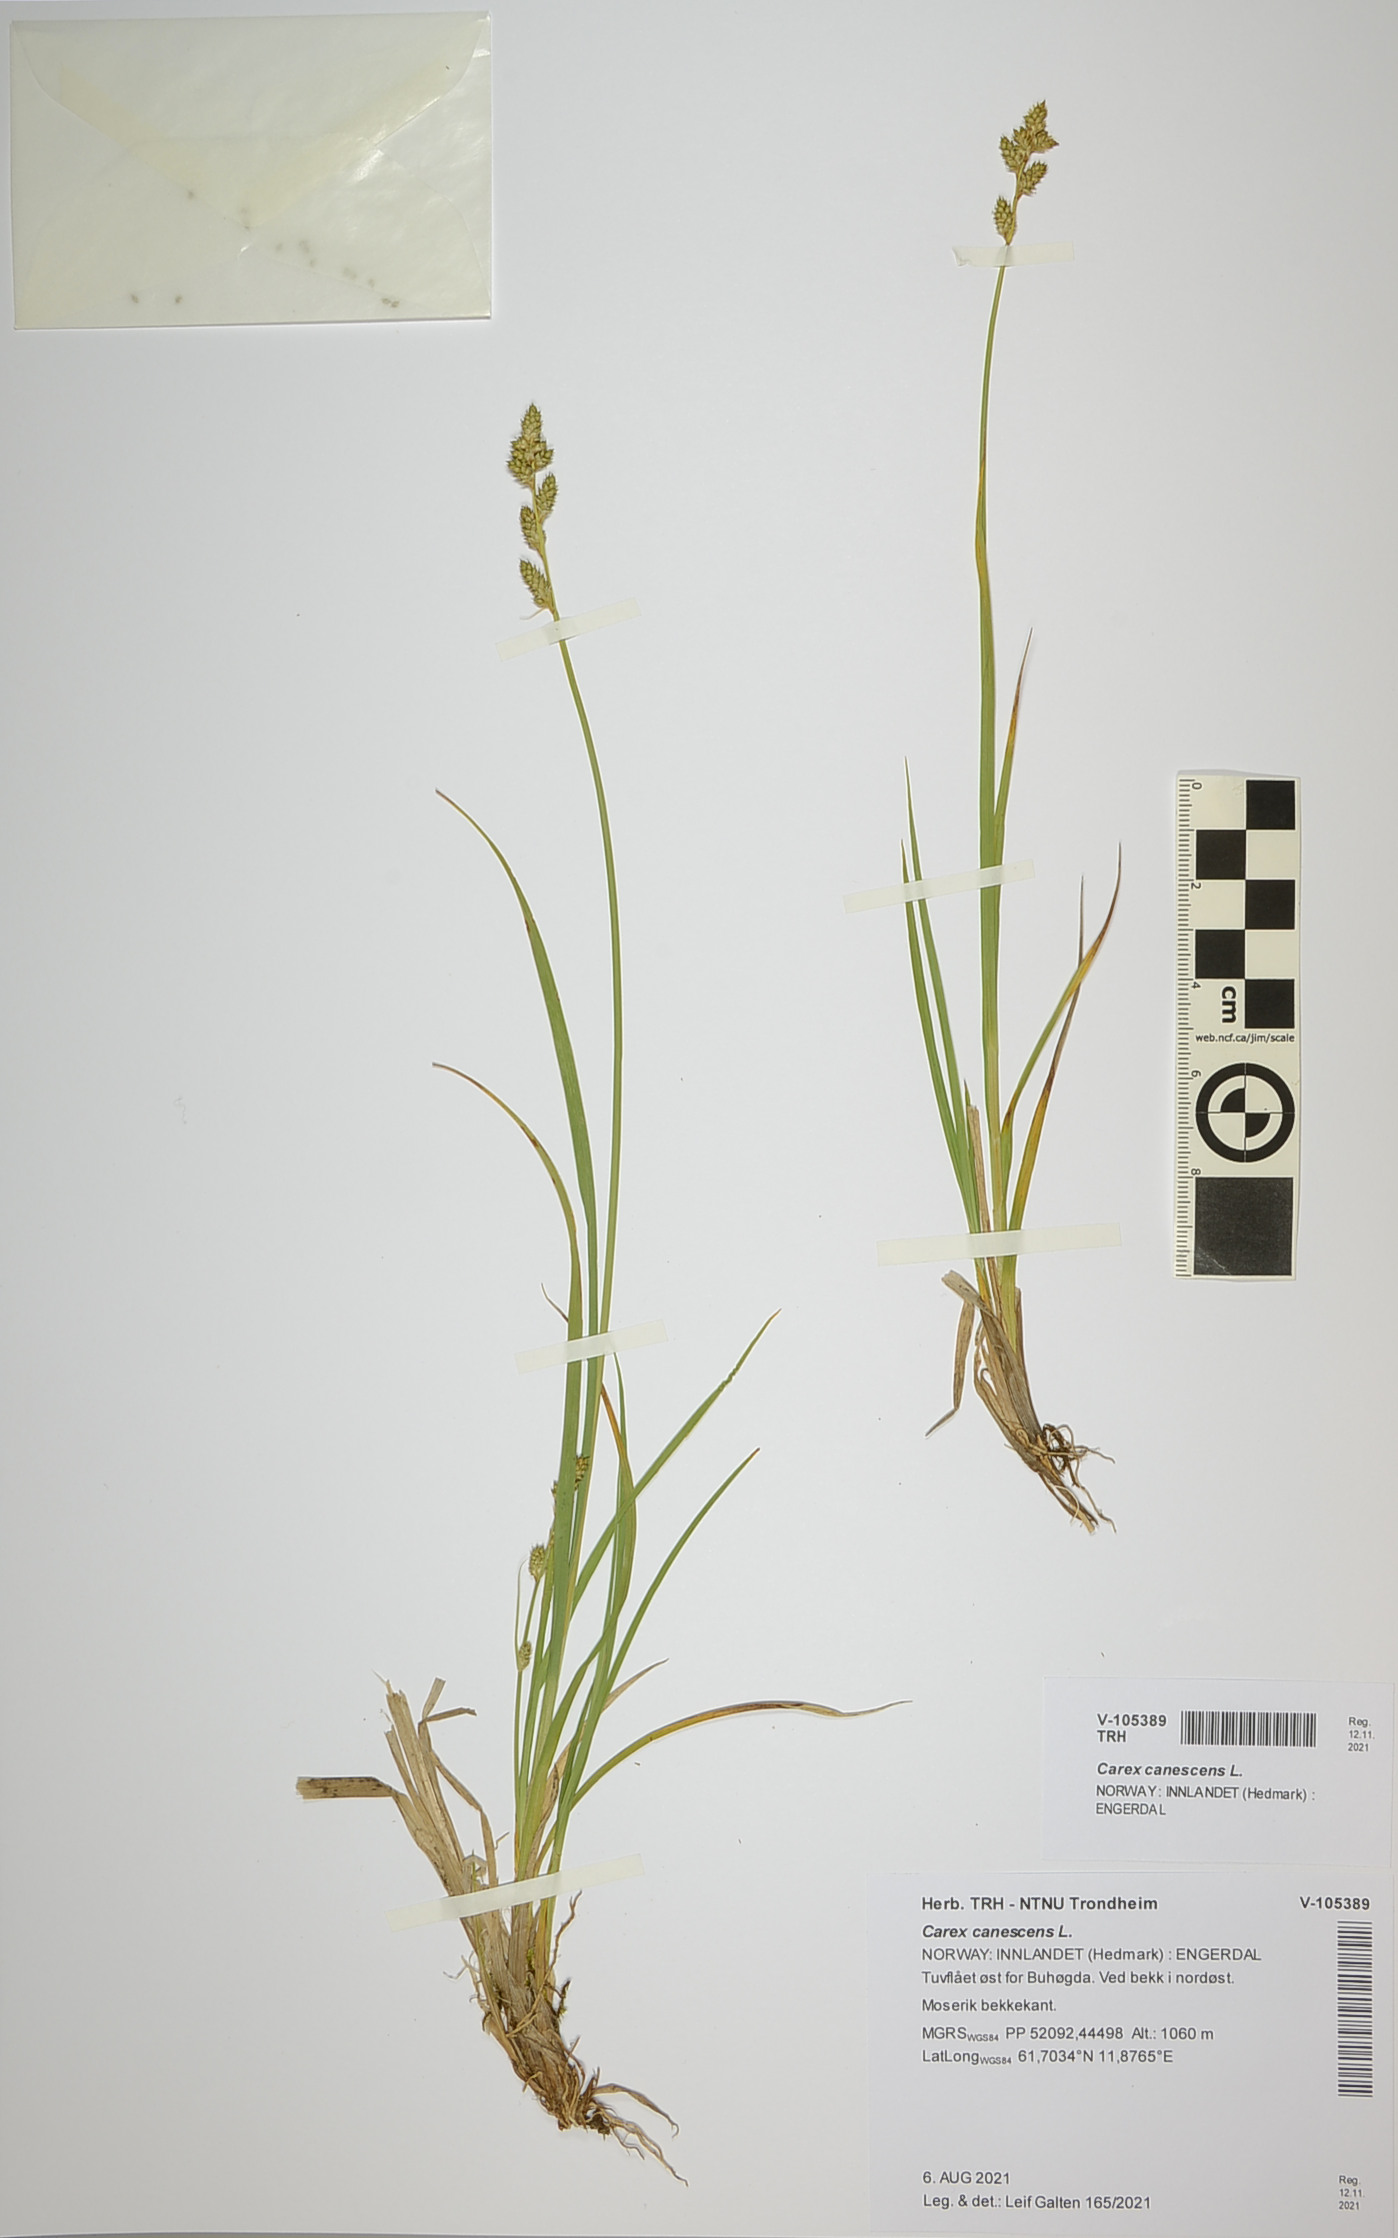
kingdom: Plantae
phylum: Tracheophyta
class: Liliopsida
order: Poales
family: Cyperaceae
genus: Carex
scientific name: Carex canescens
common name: White sedge
